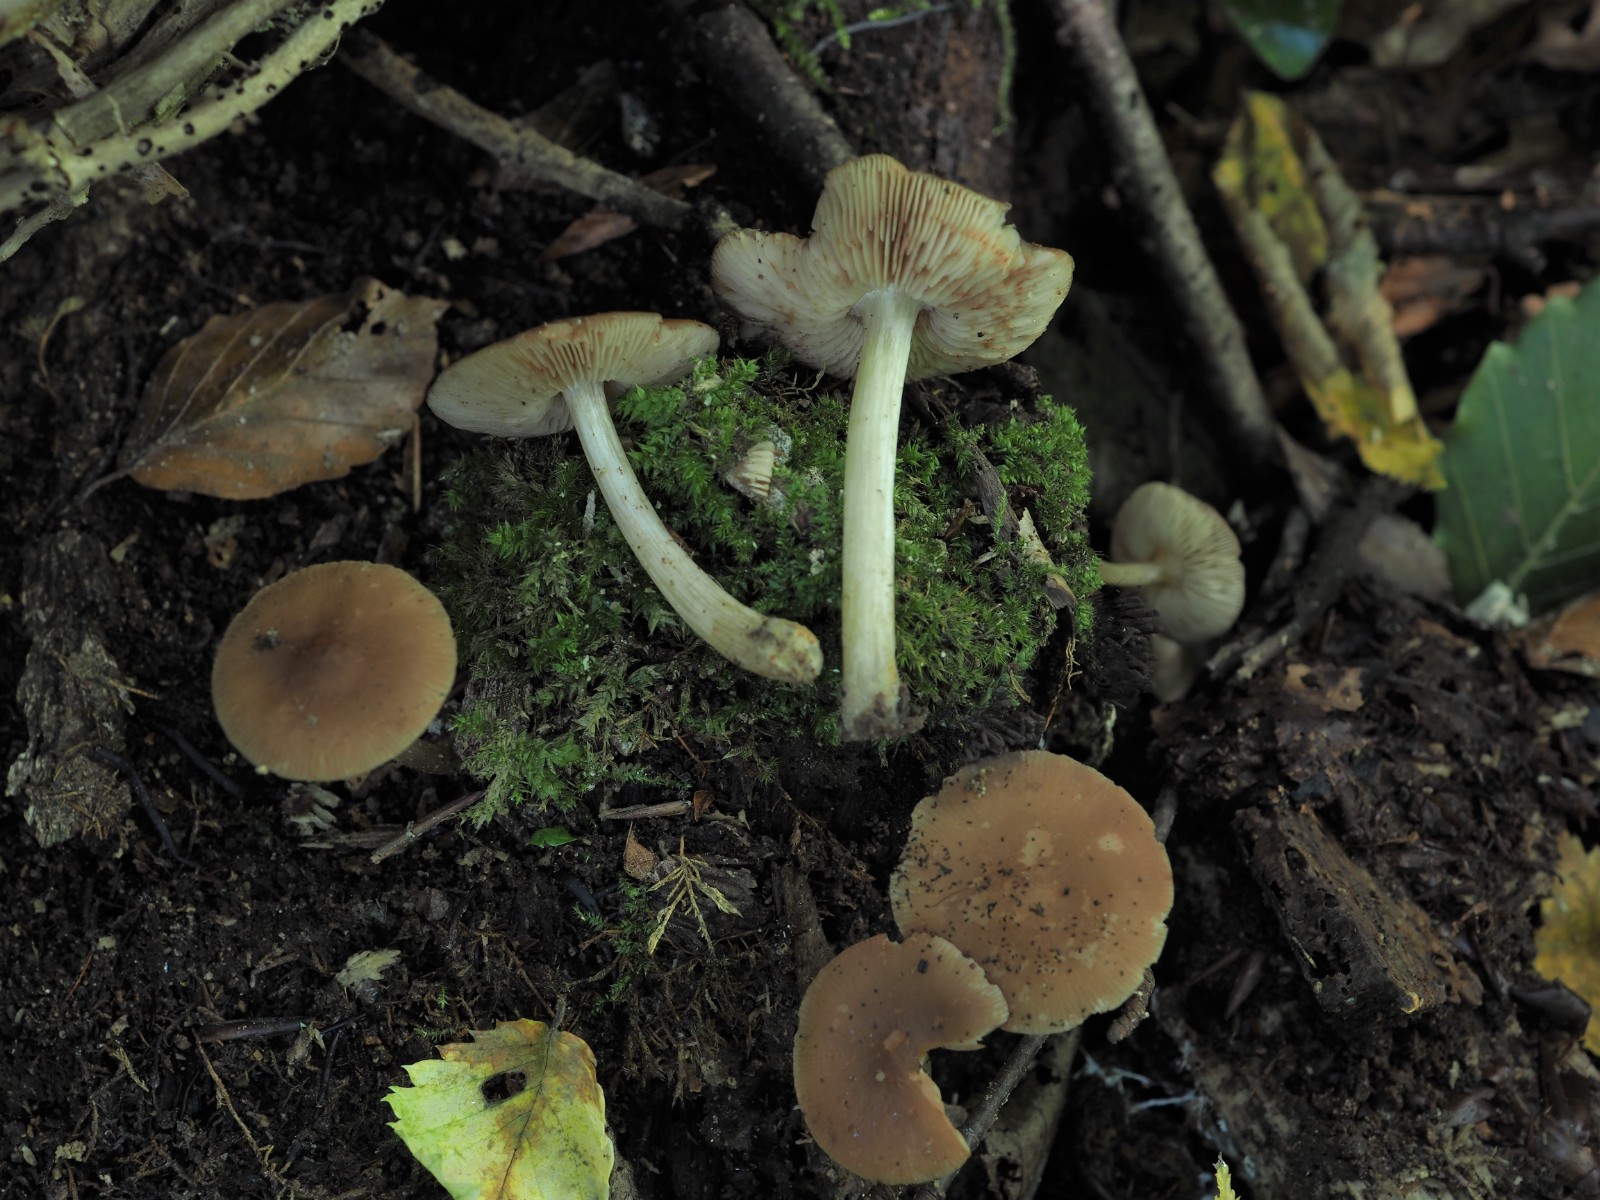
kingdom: Fungi
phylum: Basidiomycota
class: Agaricomycetes
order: Agaricales
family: Pluteaceae
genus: Pluteus
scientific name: Pluteus phlebophorus
